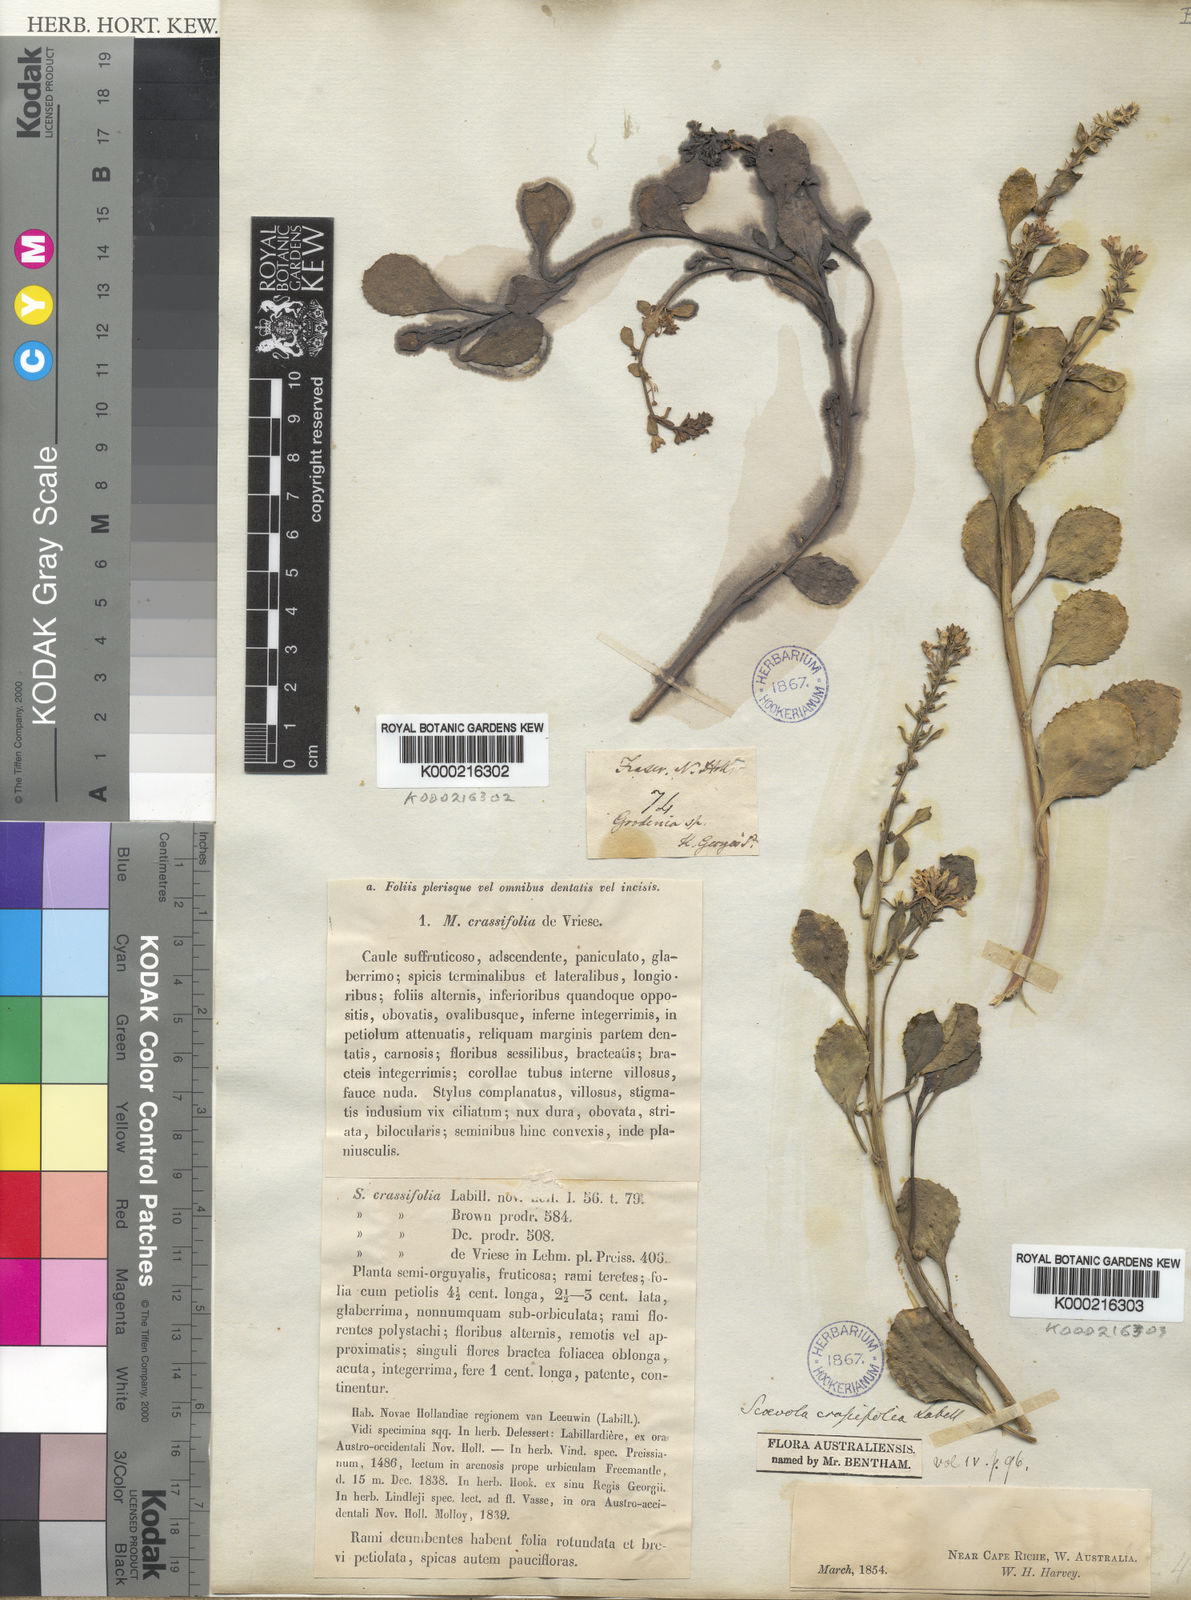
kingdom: Plantae
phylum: Tracheophyta
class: Magnoliopsida
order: Asterales
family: Goodeniaceae
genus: Scaevola
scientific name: Scaevola crassifolia
